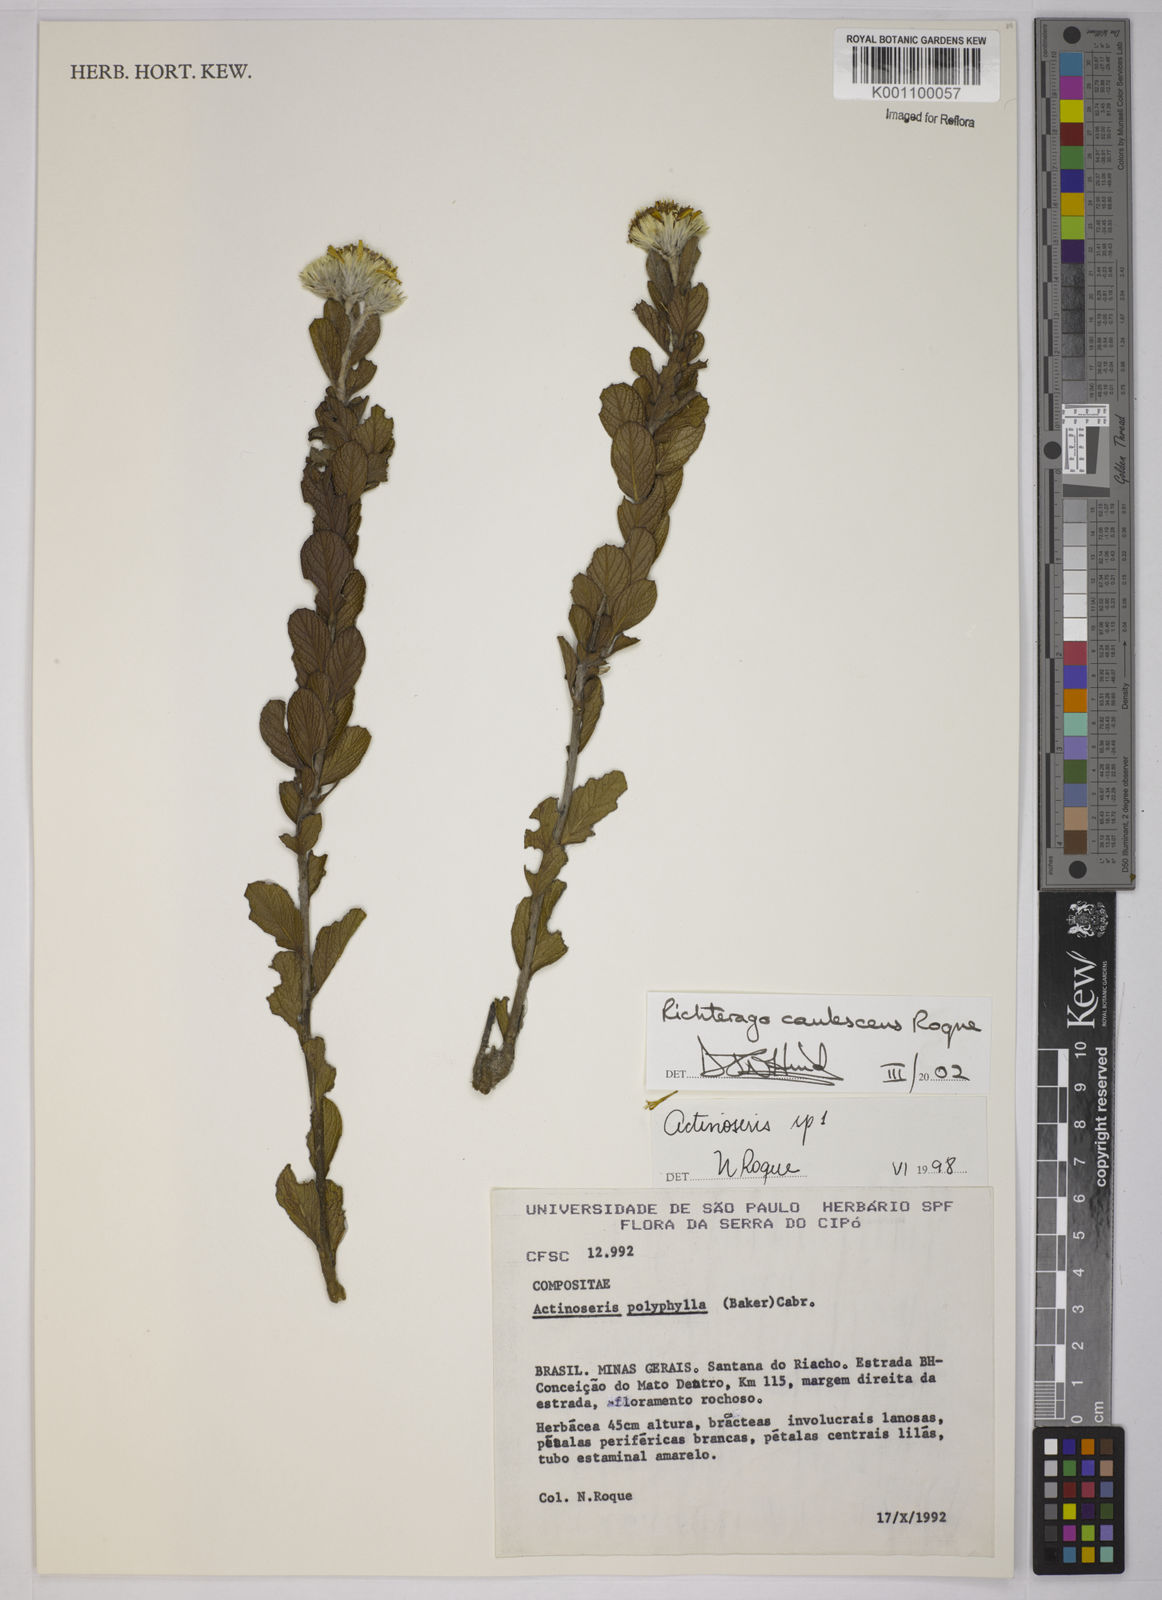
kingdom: Plantae
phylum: Tracheophyta
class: Magnoliopsida
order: Asterales
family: Asteraceae
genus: Richterago
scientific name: Richterago caulescens
